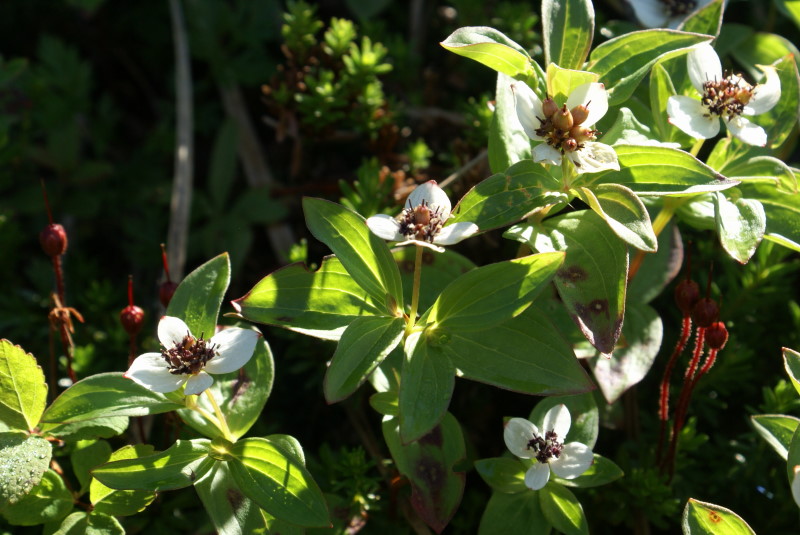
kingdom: Plantae
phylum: Tracheophyta
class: Magnoliopsida
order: Cornales
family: Cornaceae
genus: Cornus
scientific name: Cornus suecica
